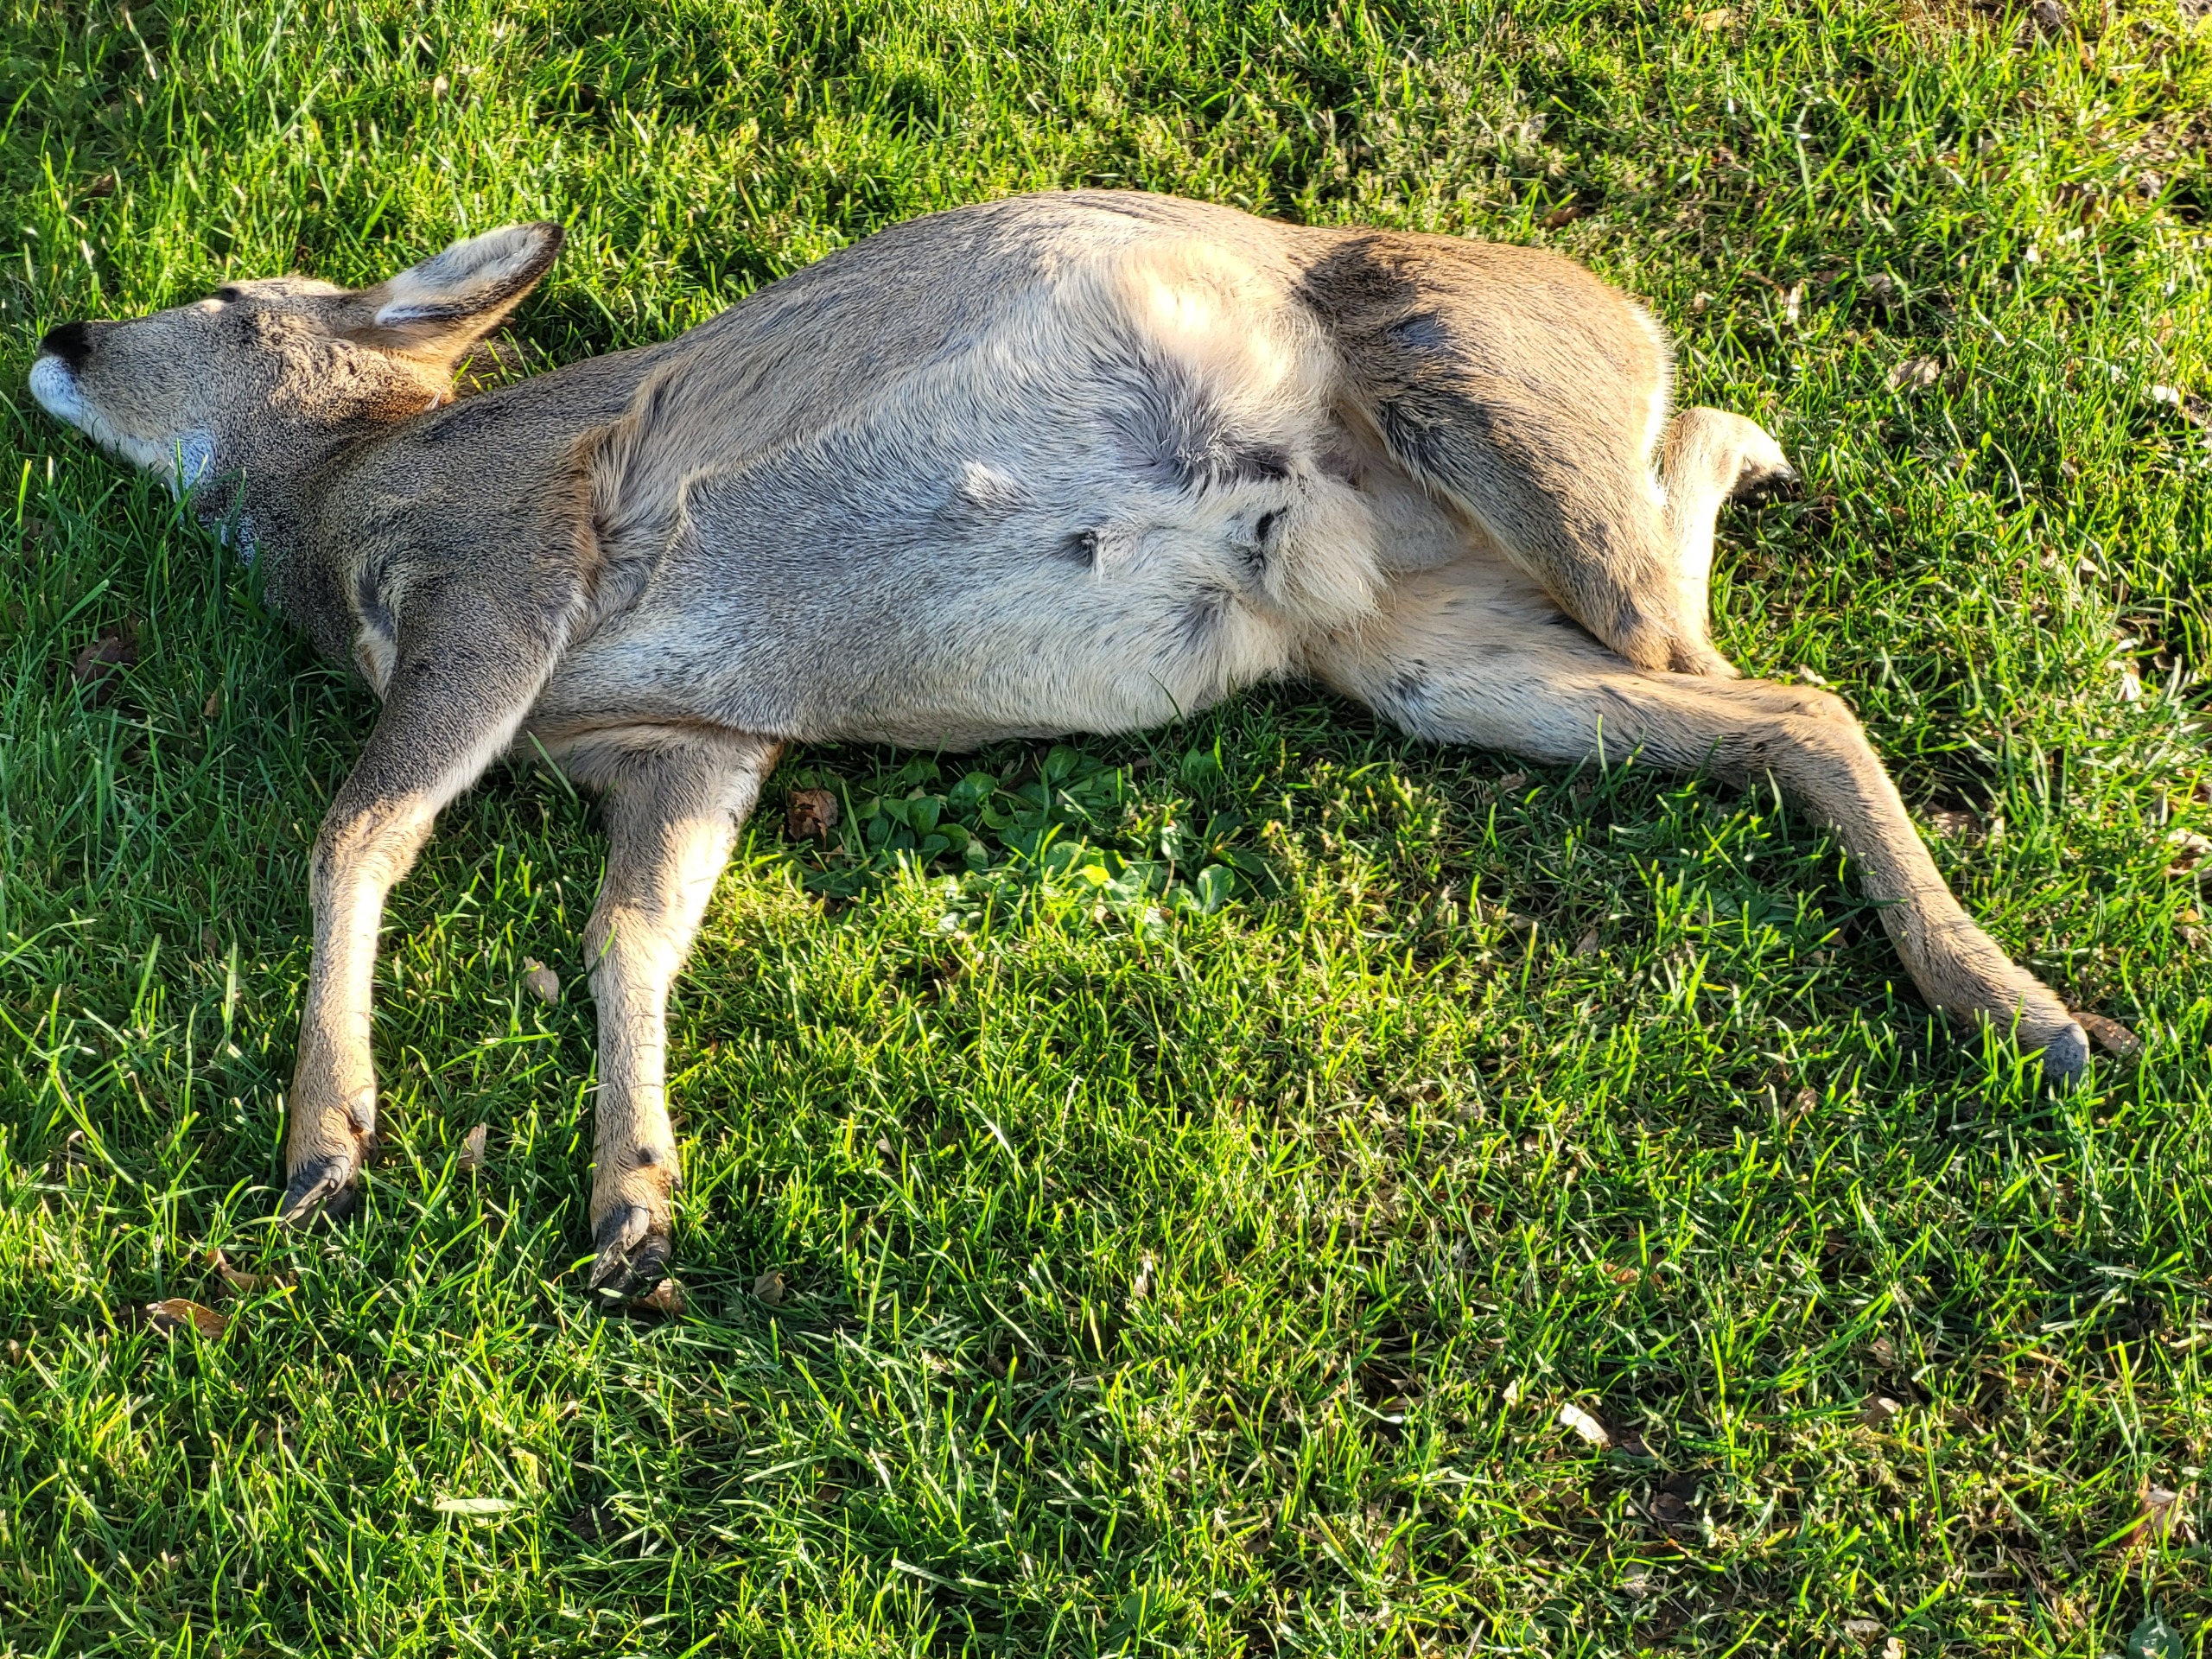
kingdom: Animalia
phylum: Chordata
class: Mammalia
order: Artiodactyla
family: Cervidae
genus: Capreolus
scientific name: Capreolus capreolus
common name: Rådyr
